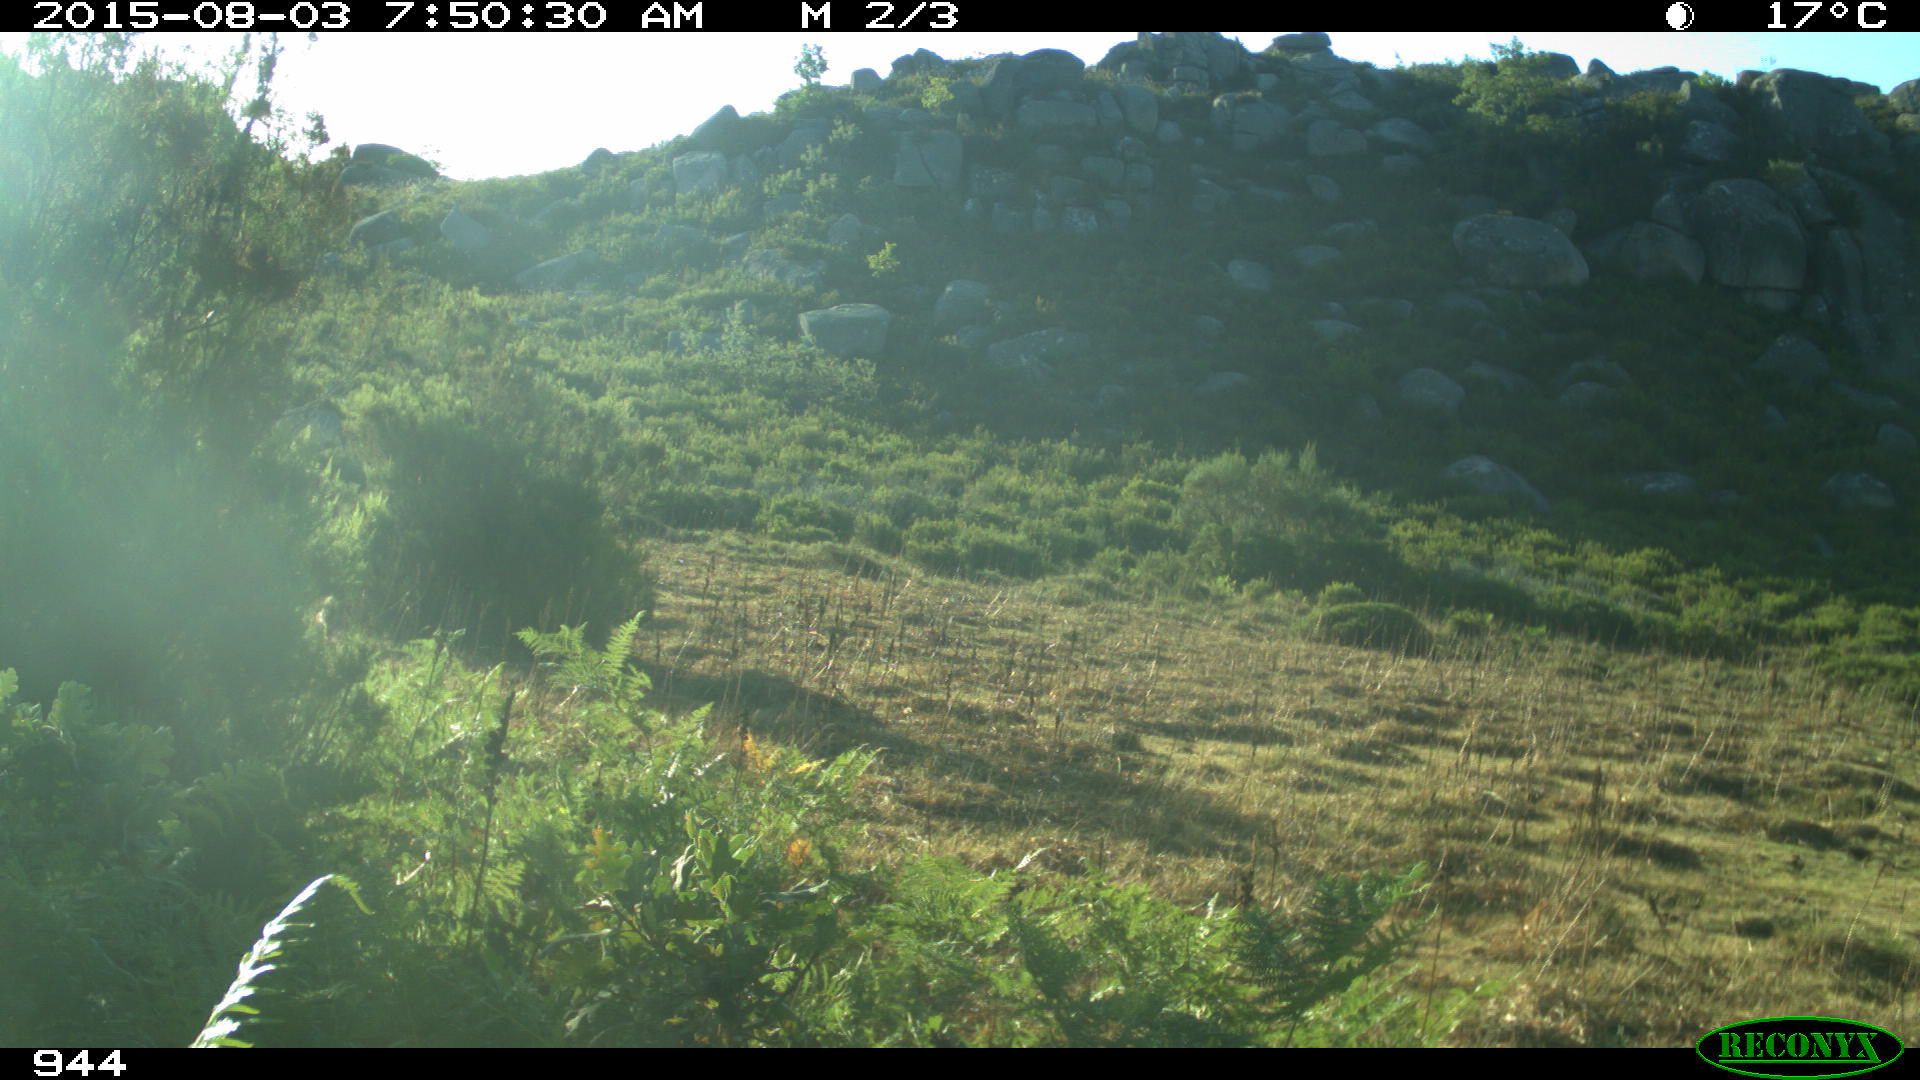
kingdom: Animalia
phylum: Chordata
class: Mammalia
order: Artiodactyla
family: Bovidae
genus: Bos
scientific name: Bos taurus
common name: Domesticated cattle
